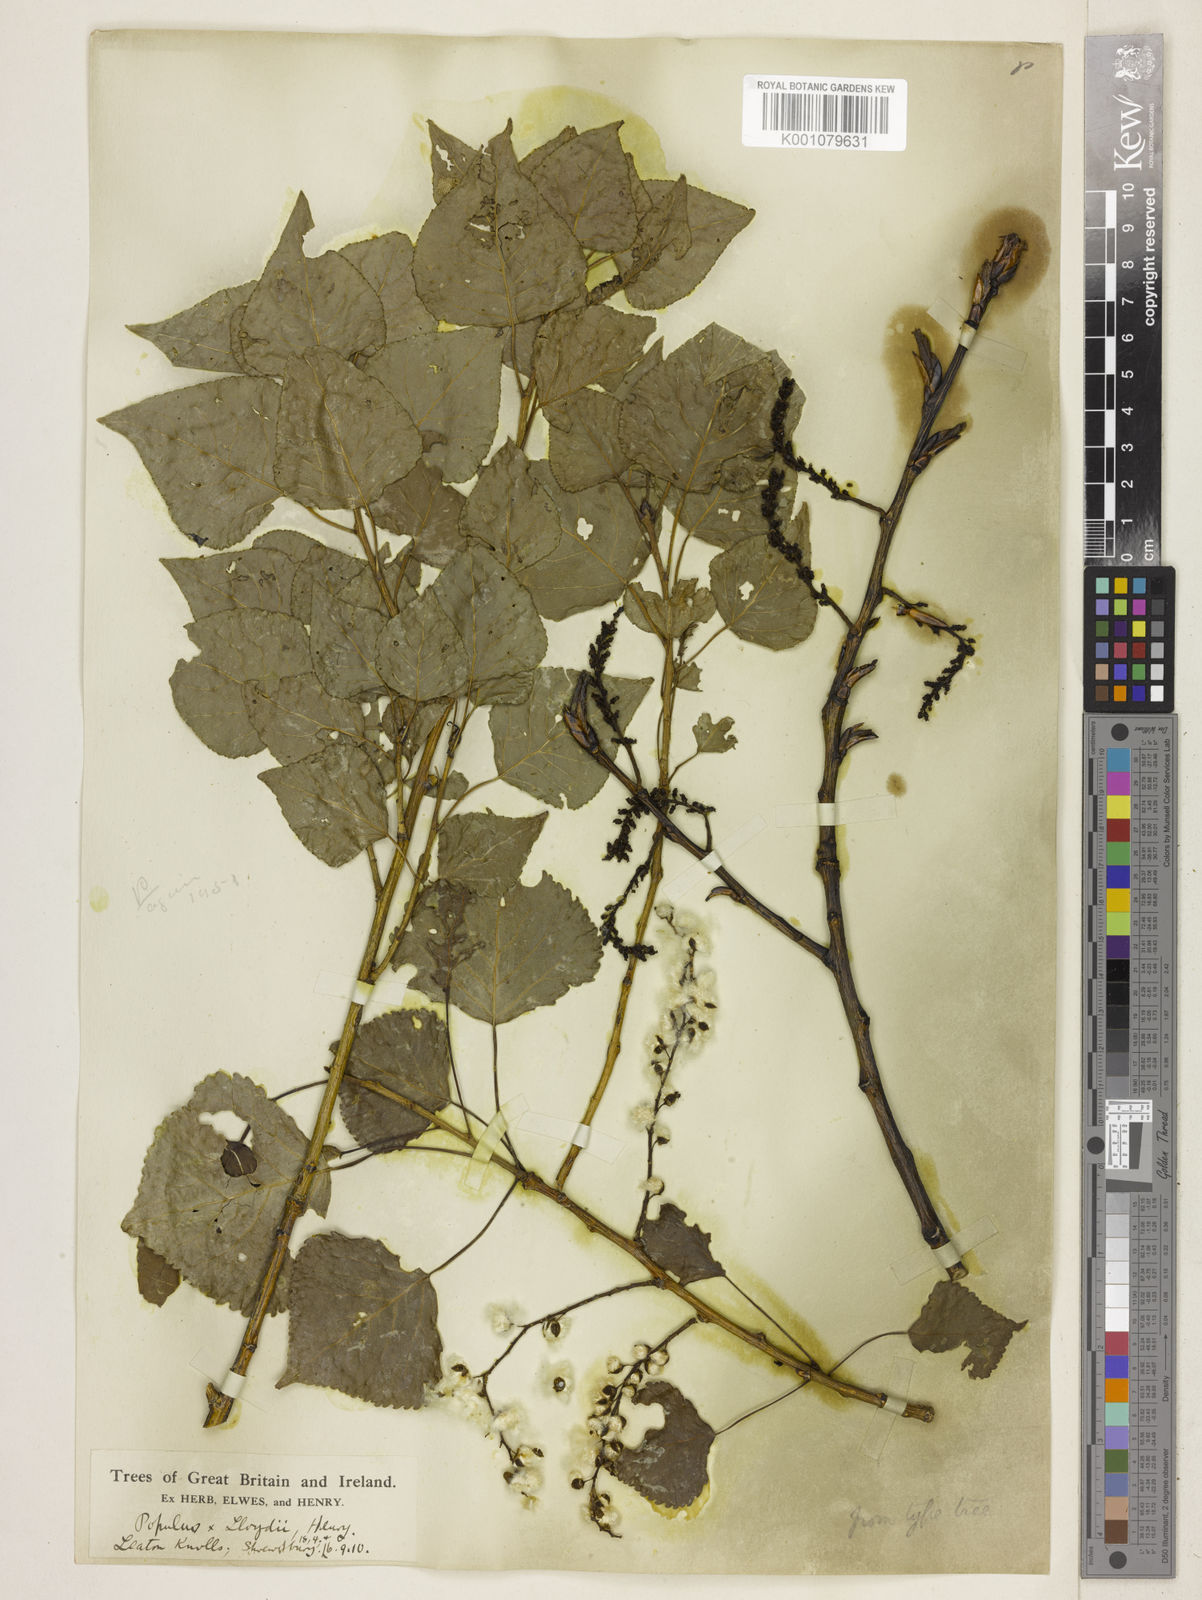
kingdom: Plantae
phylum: Tracheophyta
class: Magnoliopsida
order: Malpighiales
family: Salicaceae
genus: Populus
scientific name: Populus
